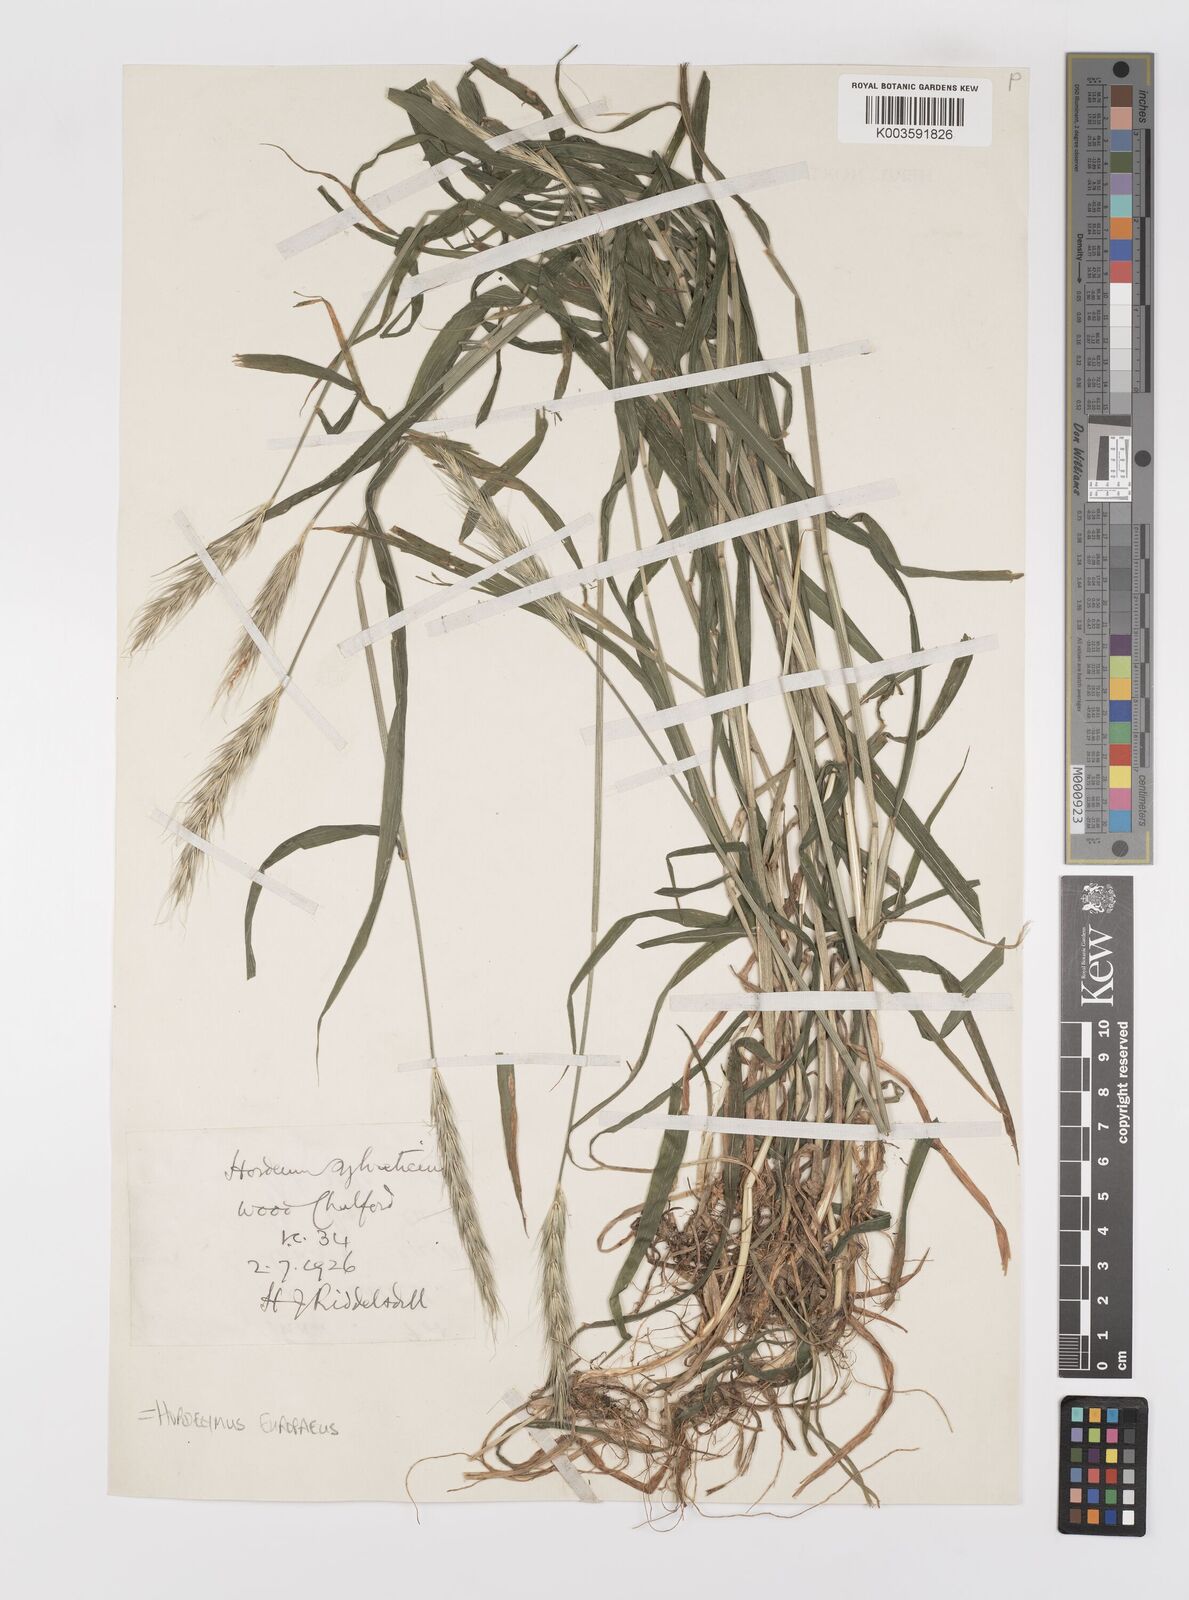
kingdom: Plantae
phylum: Tracheophyta
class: Liliopsida
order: Poales
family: Poaceae
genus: Hordelymus
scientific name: Hordelymus europaeus
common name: Wood-barley
